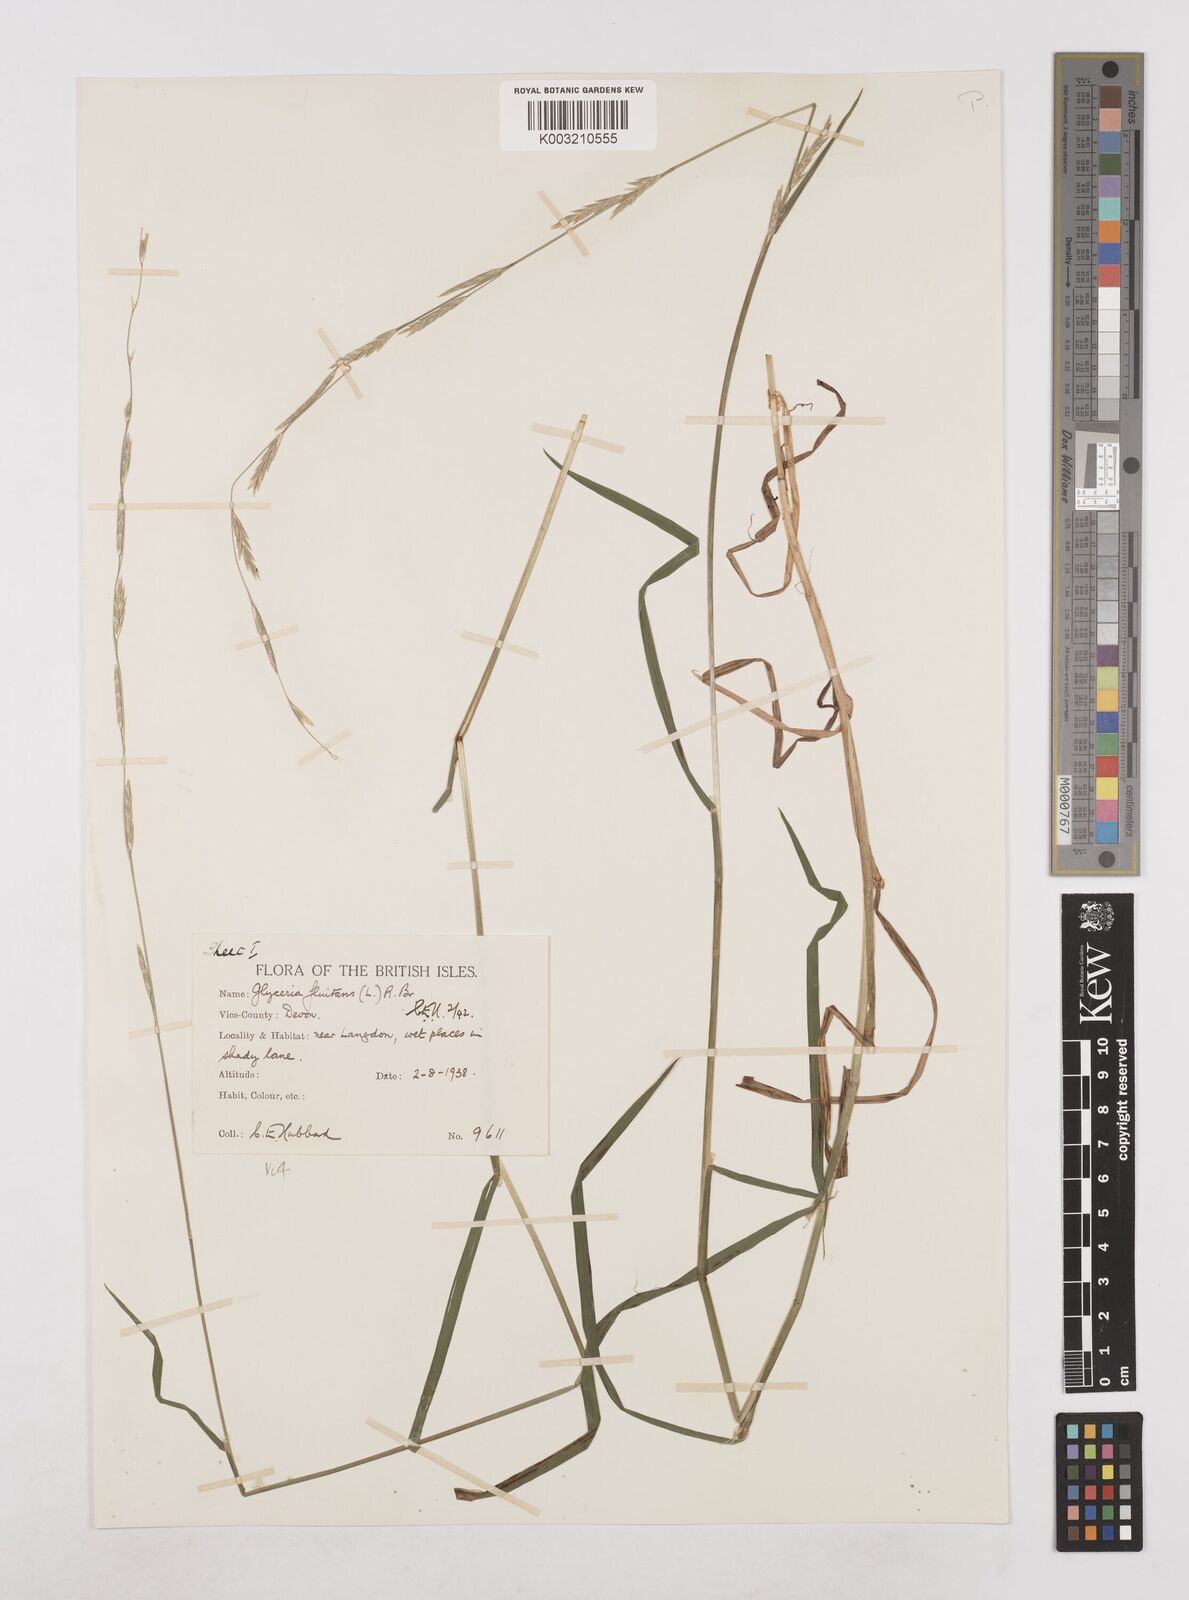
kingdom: Plantae
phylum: Tracheophyta
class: Liliopsida
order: Poales
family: Poaceae
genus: Glyceria
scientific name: Glyceria fluitans
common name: Floating sweet-grass
